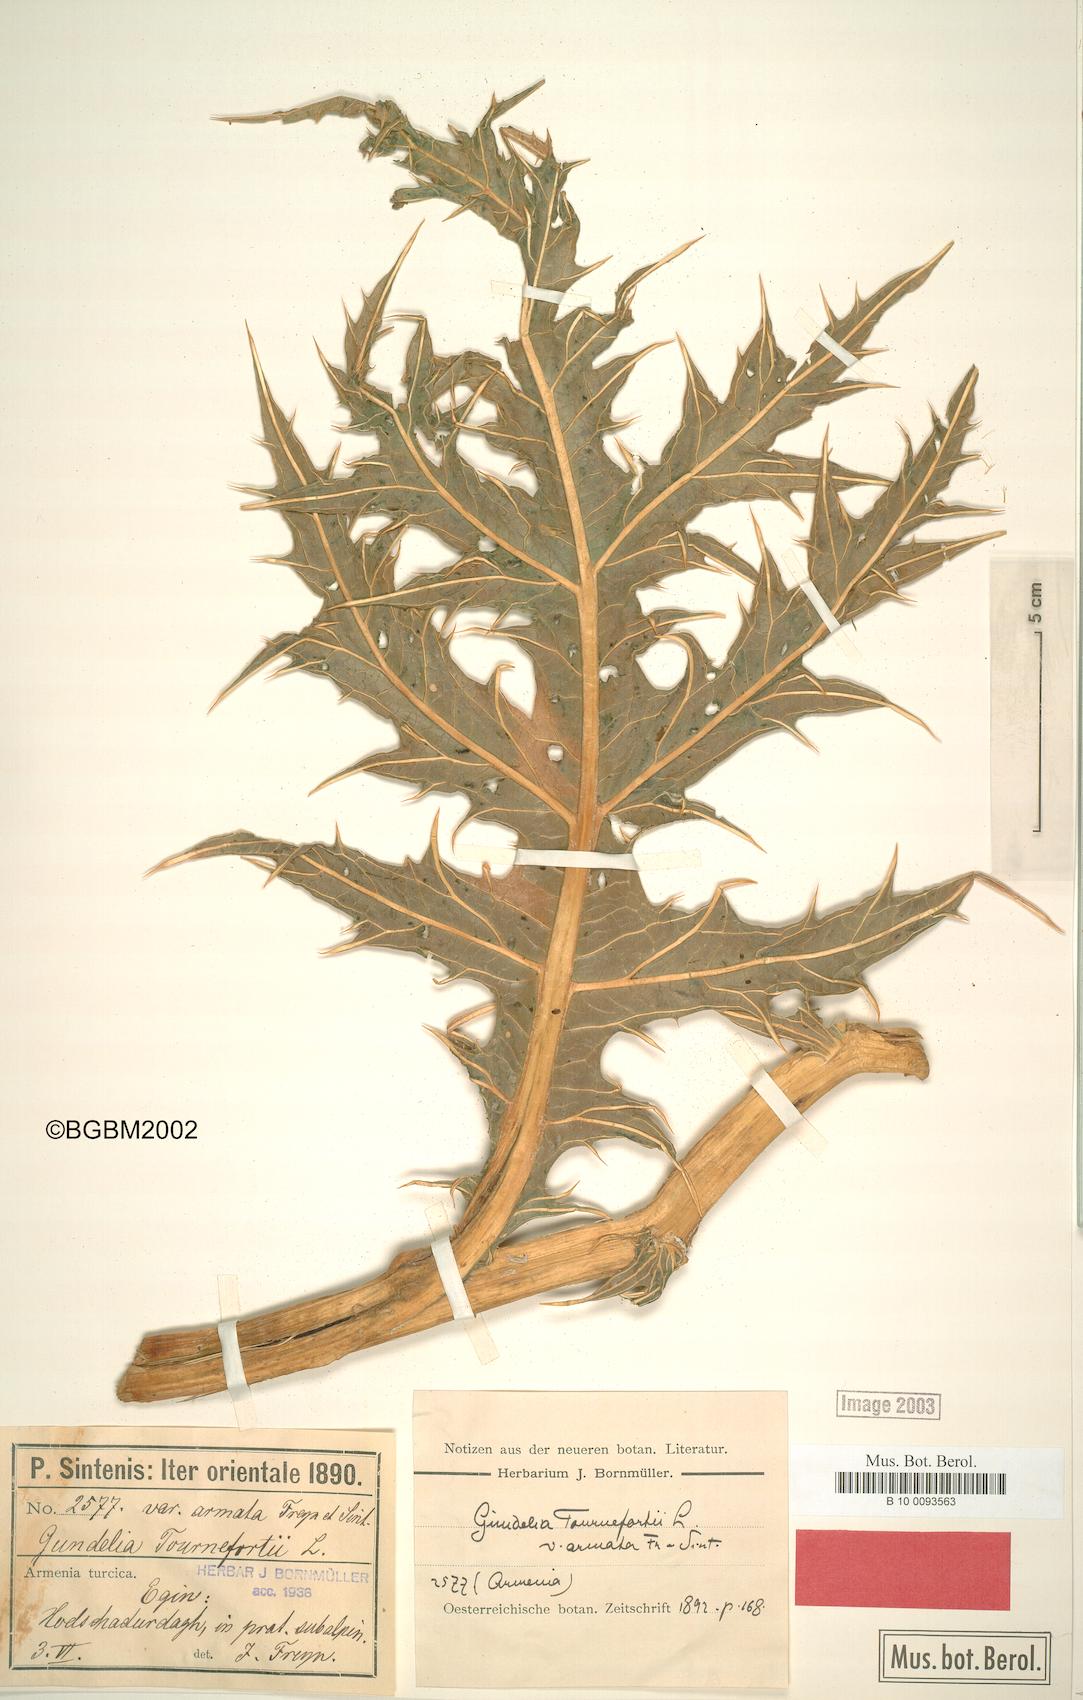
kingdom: Plantae
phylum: Tracheophyta
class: Magnoliopsida
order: Asterales
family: Asteraceae
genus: Gundelia
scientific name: Gundelia dersim
